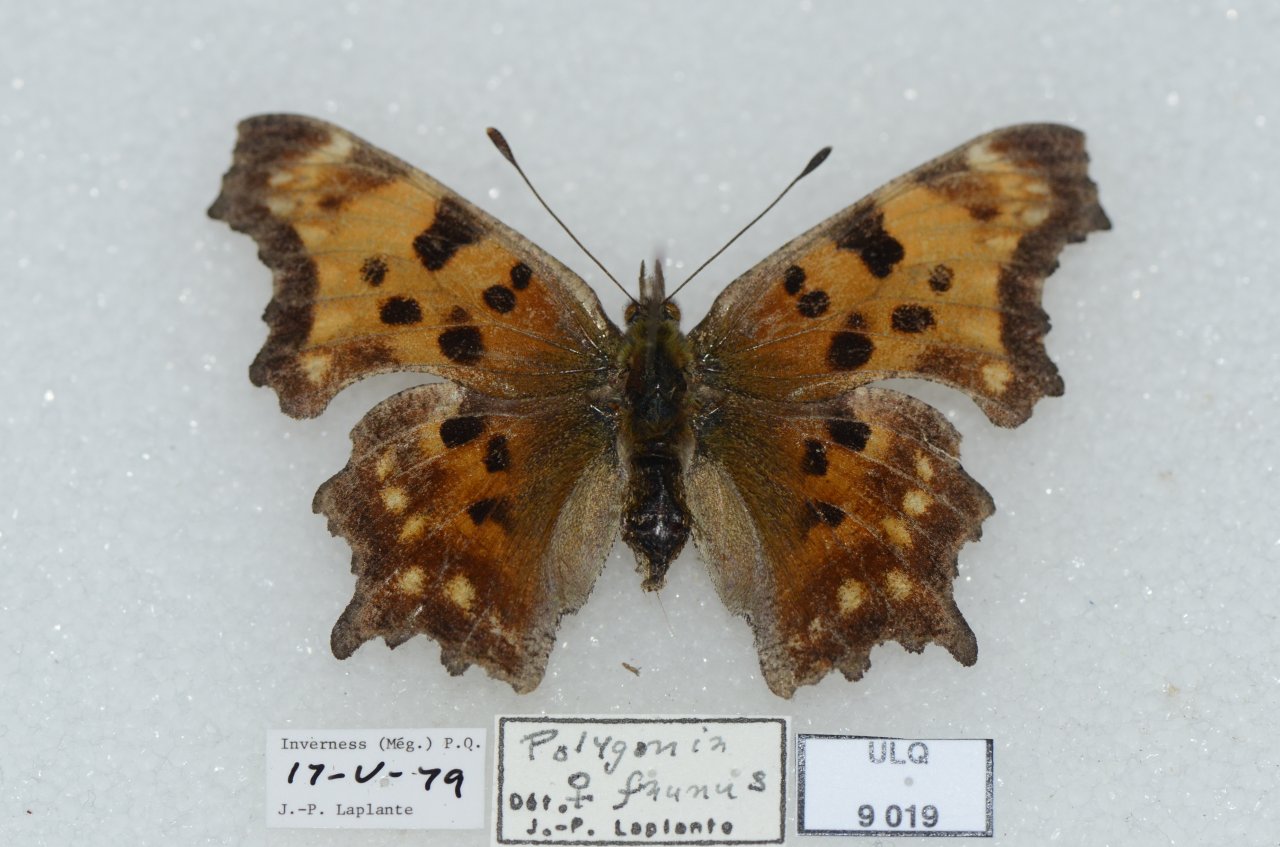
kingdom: Animalia
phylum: Arthropoda
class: Insecta
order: Lepidoptera
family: Nymphalidae
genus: Polygonia
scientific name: Polygonia faunus
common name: Green Comma
